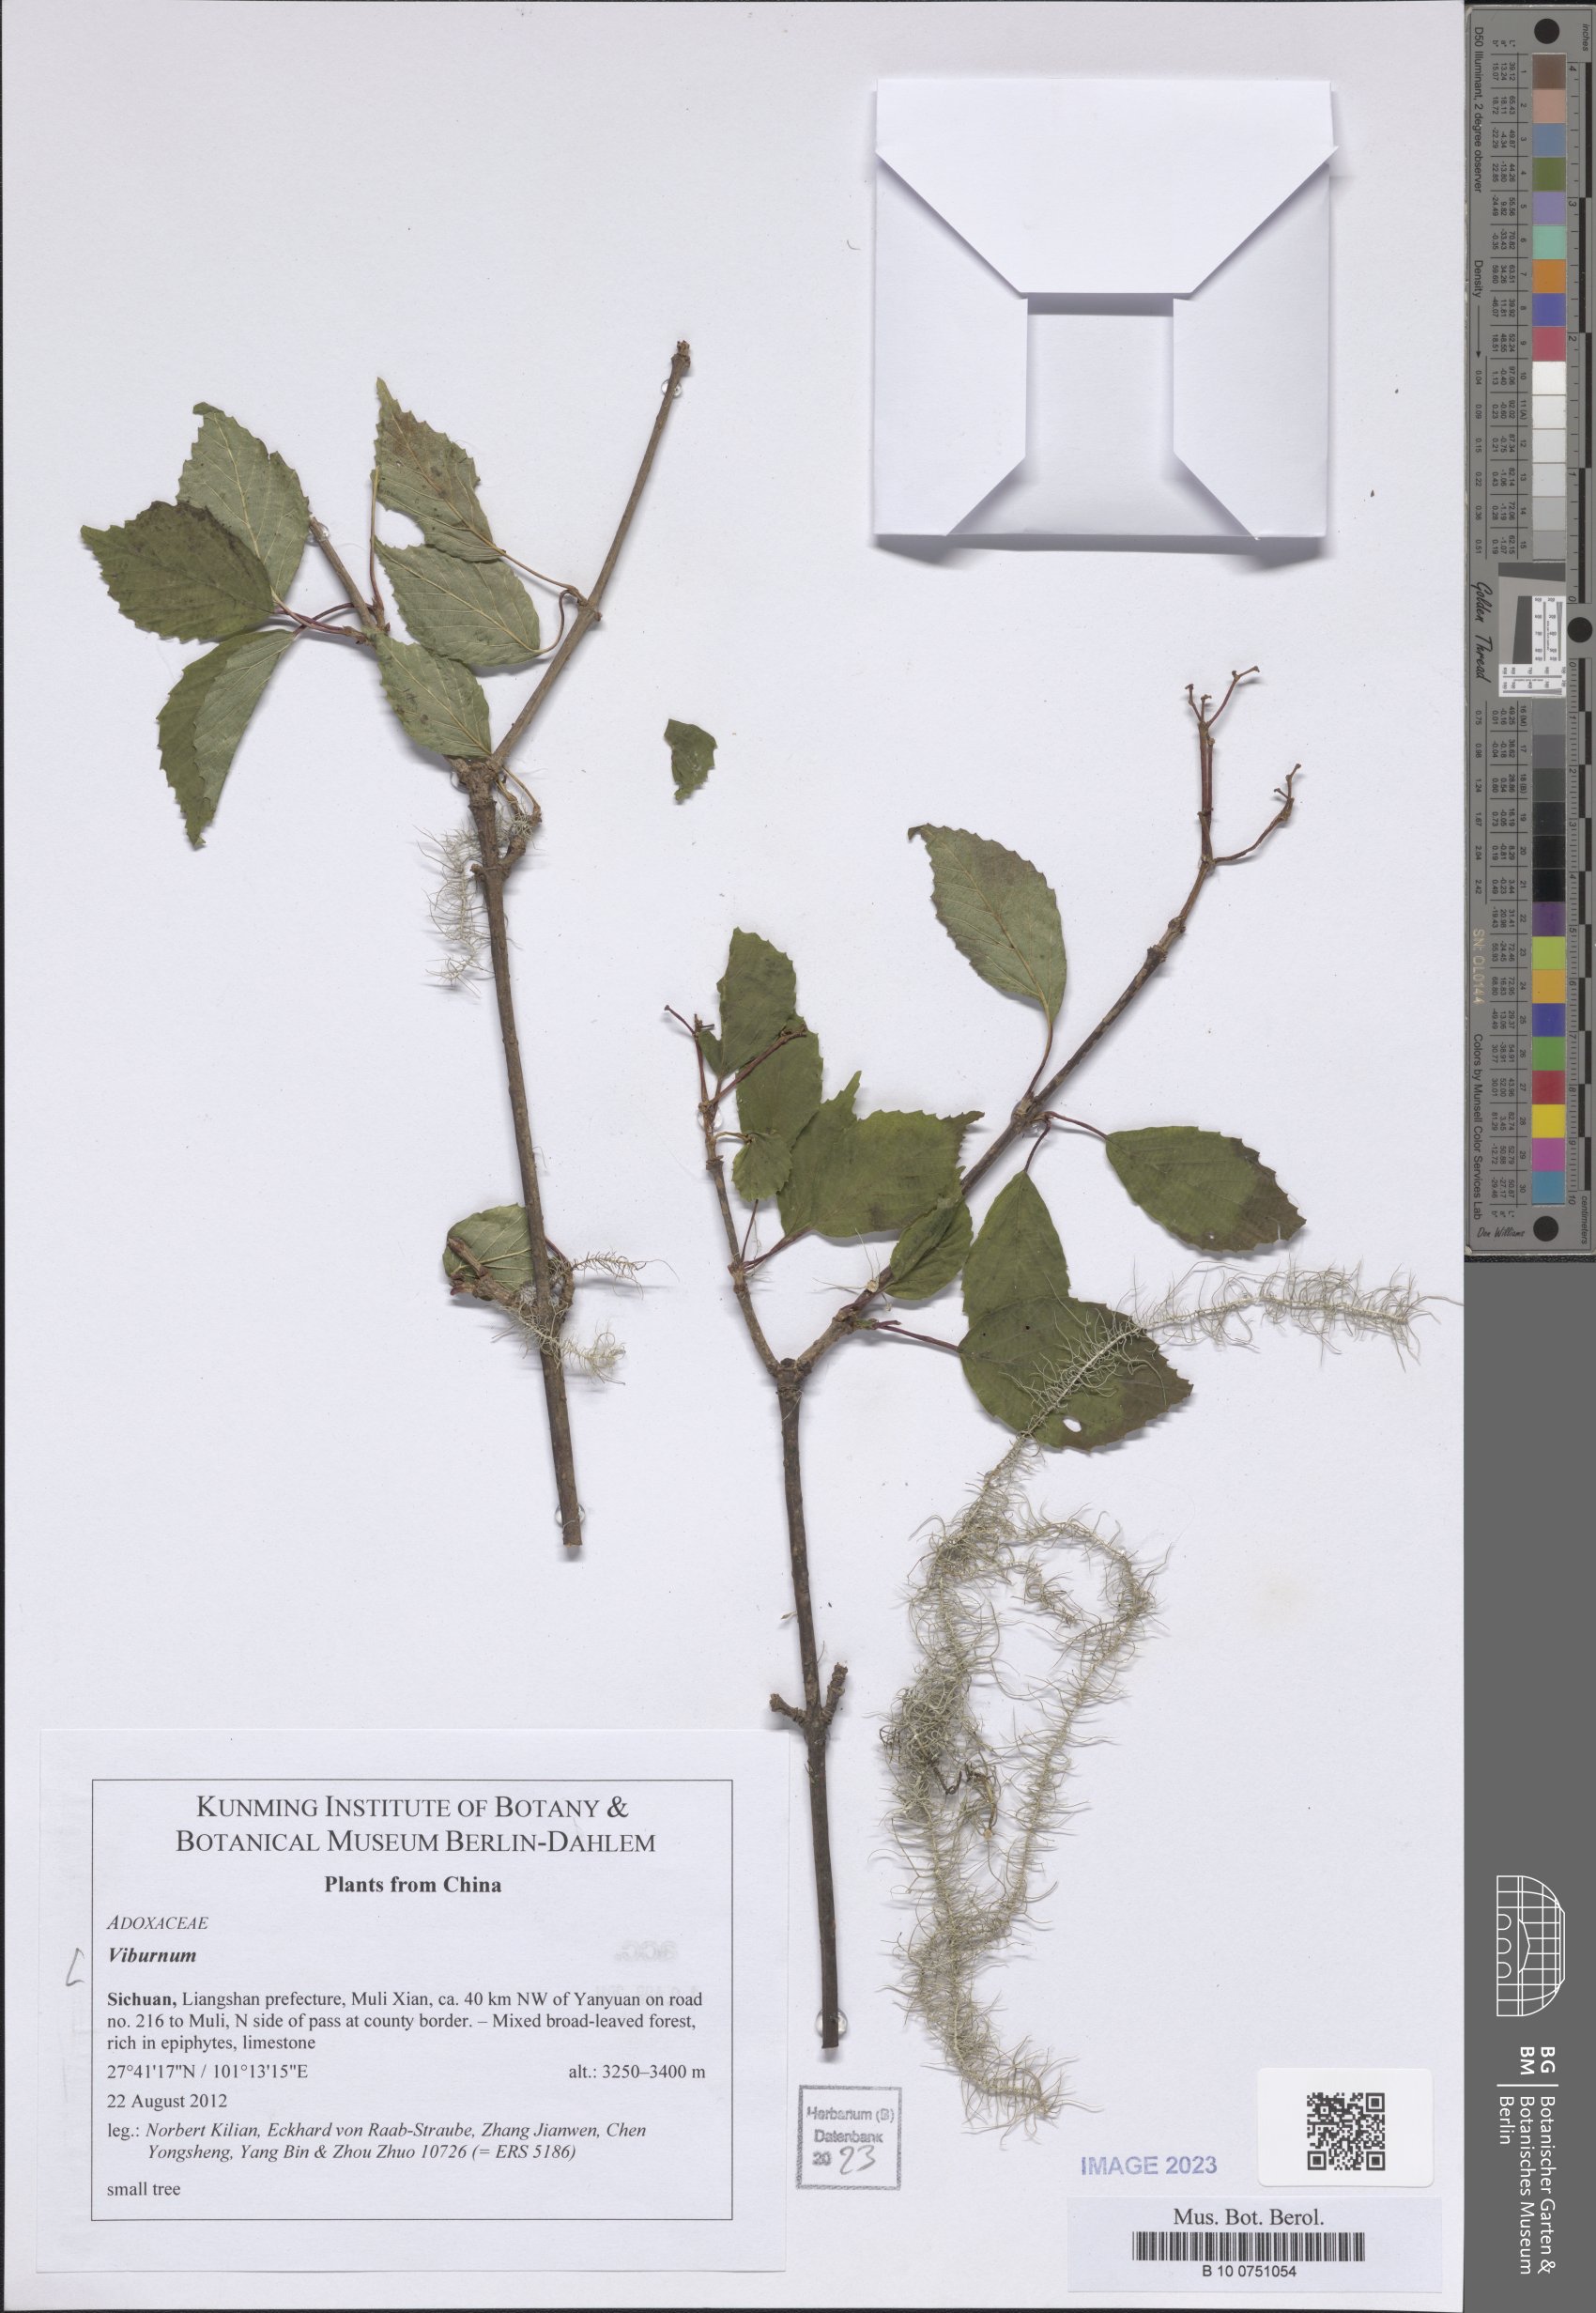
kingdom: Plantae
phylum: Tracheophyta
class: Magnoliopsida
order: Dipsacales
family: Viburnaceae
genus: Viburnum
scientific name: Viburnum
